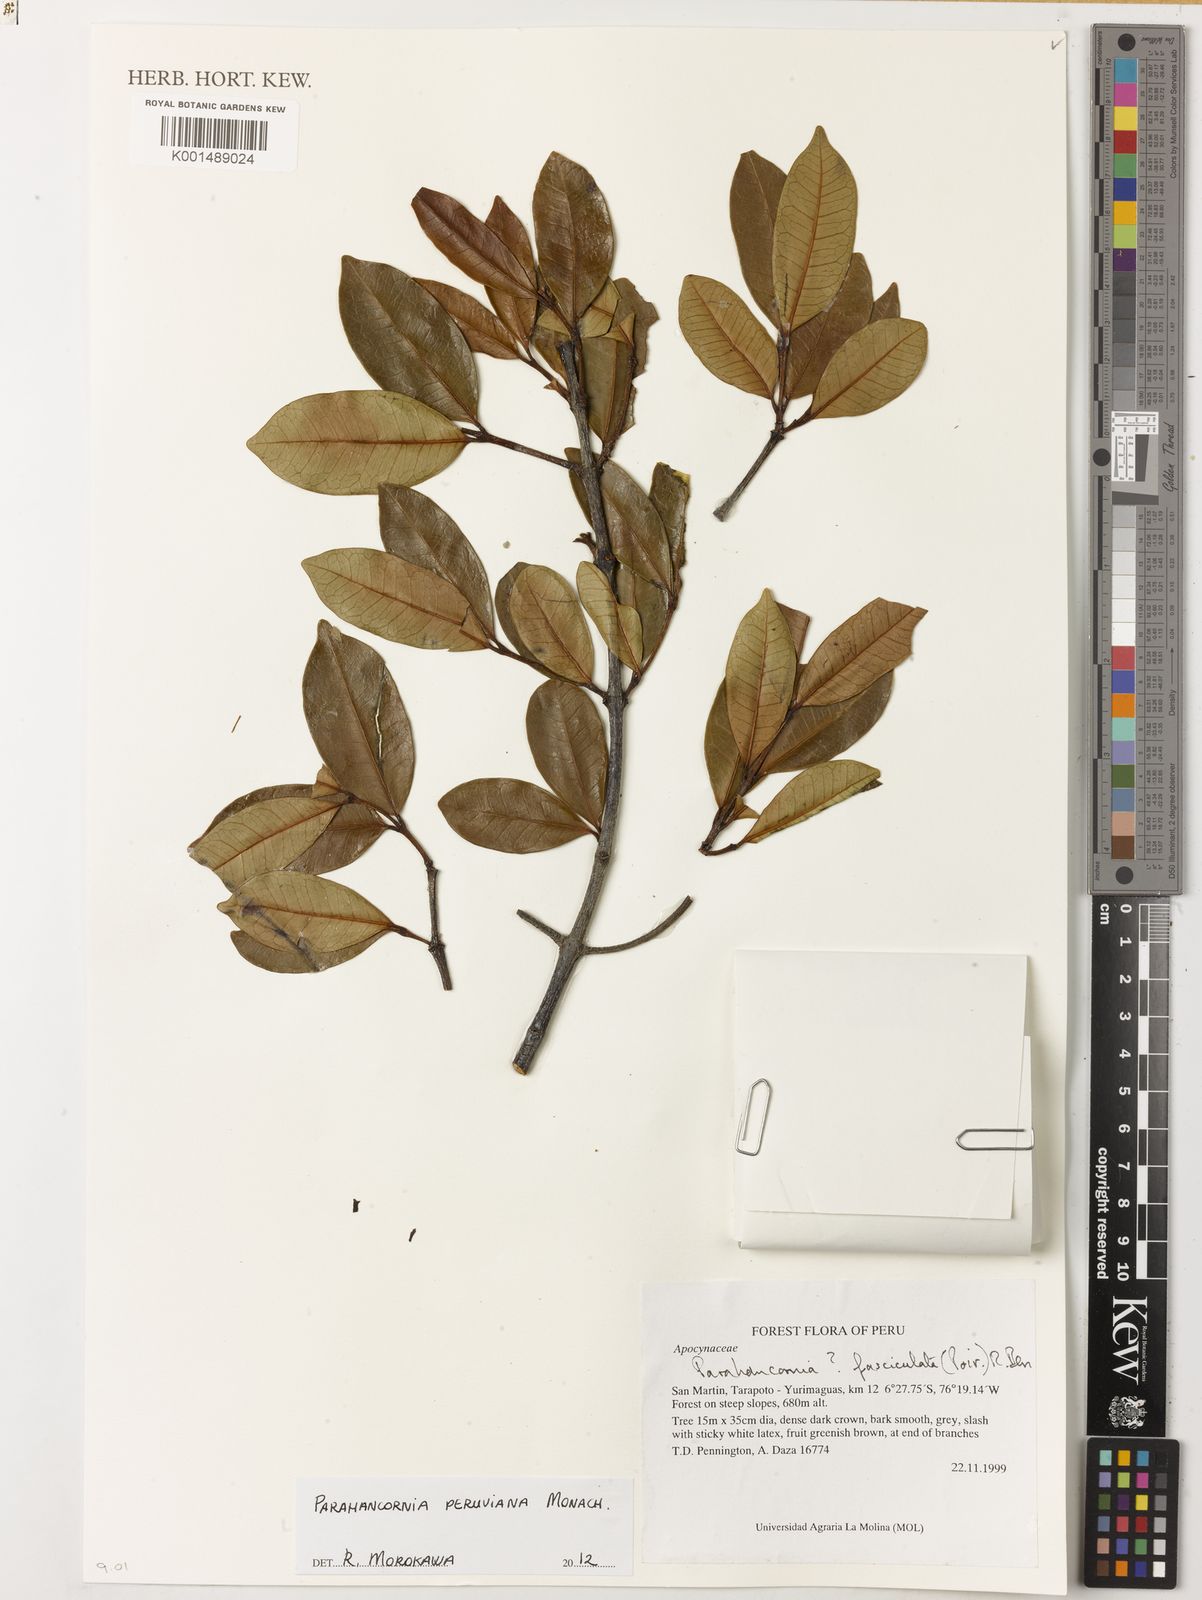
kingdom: Plantae
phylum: Tracheophyta
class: Magnoliopsida
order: Gentianales
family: Apocynaceae
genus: Parahancornia
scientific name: Parahancornia peruviana
